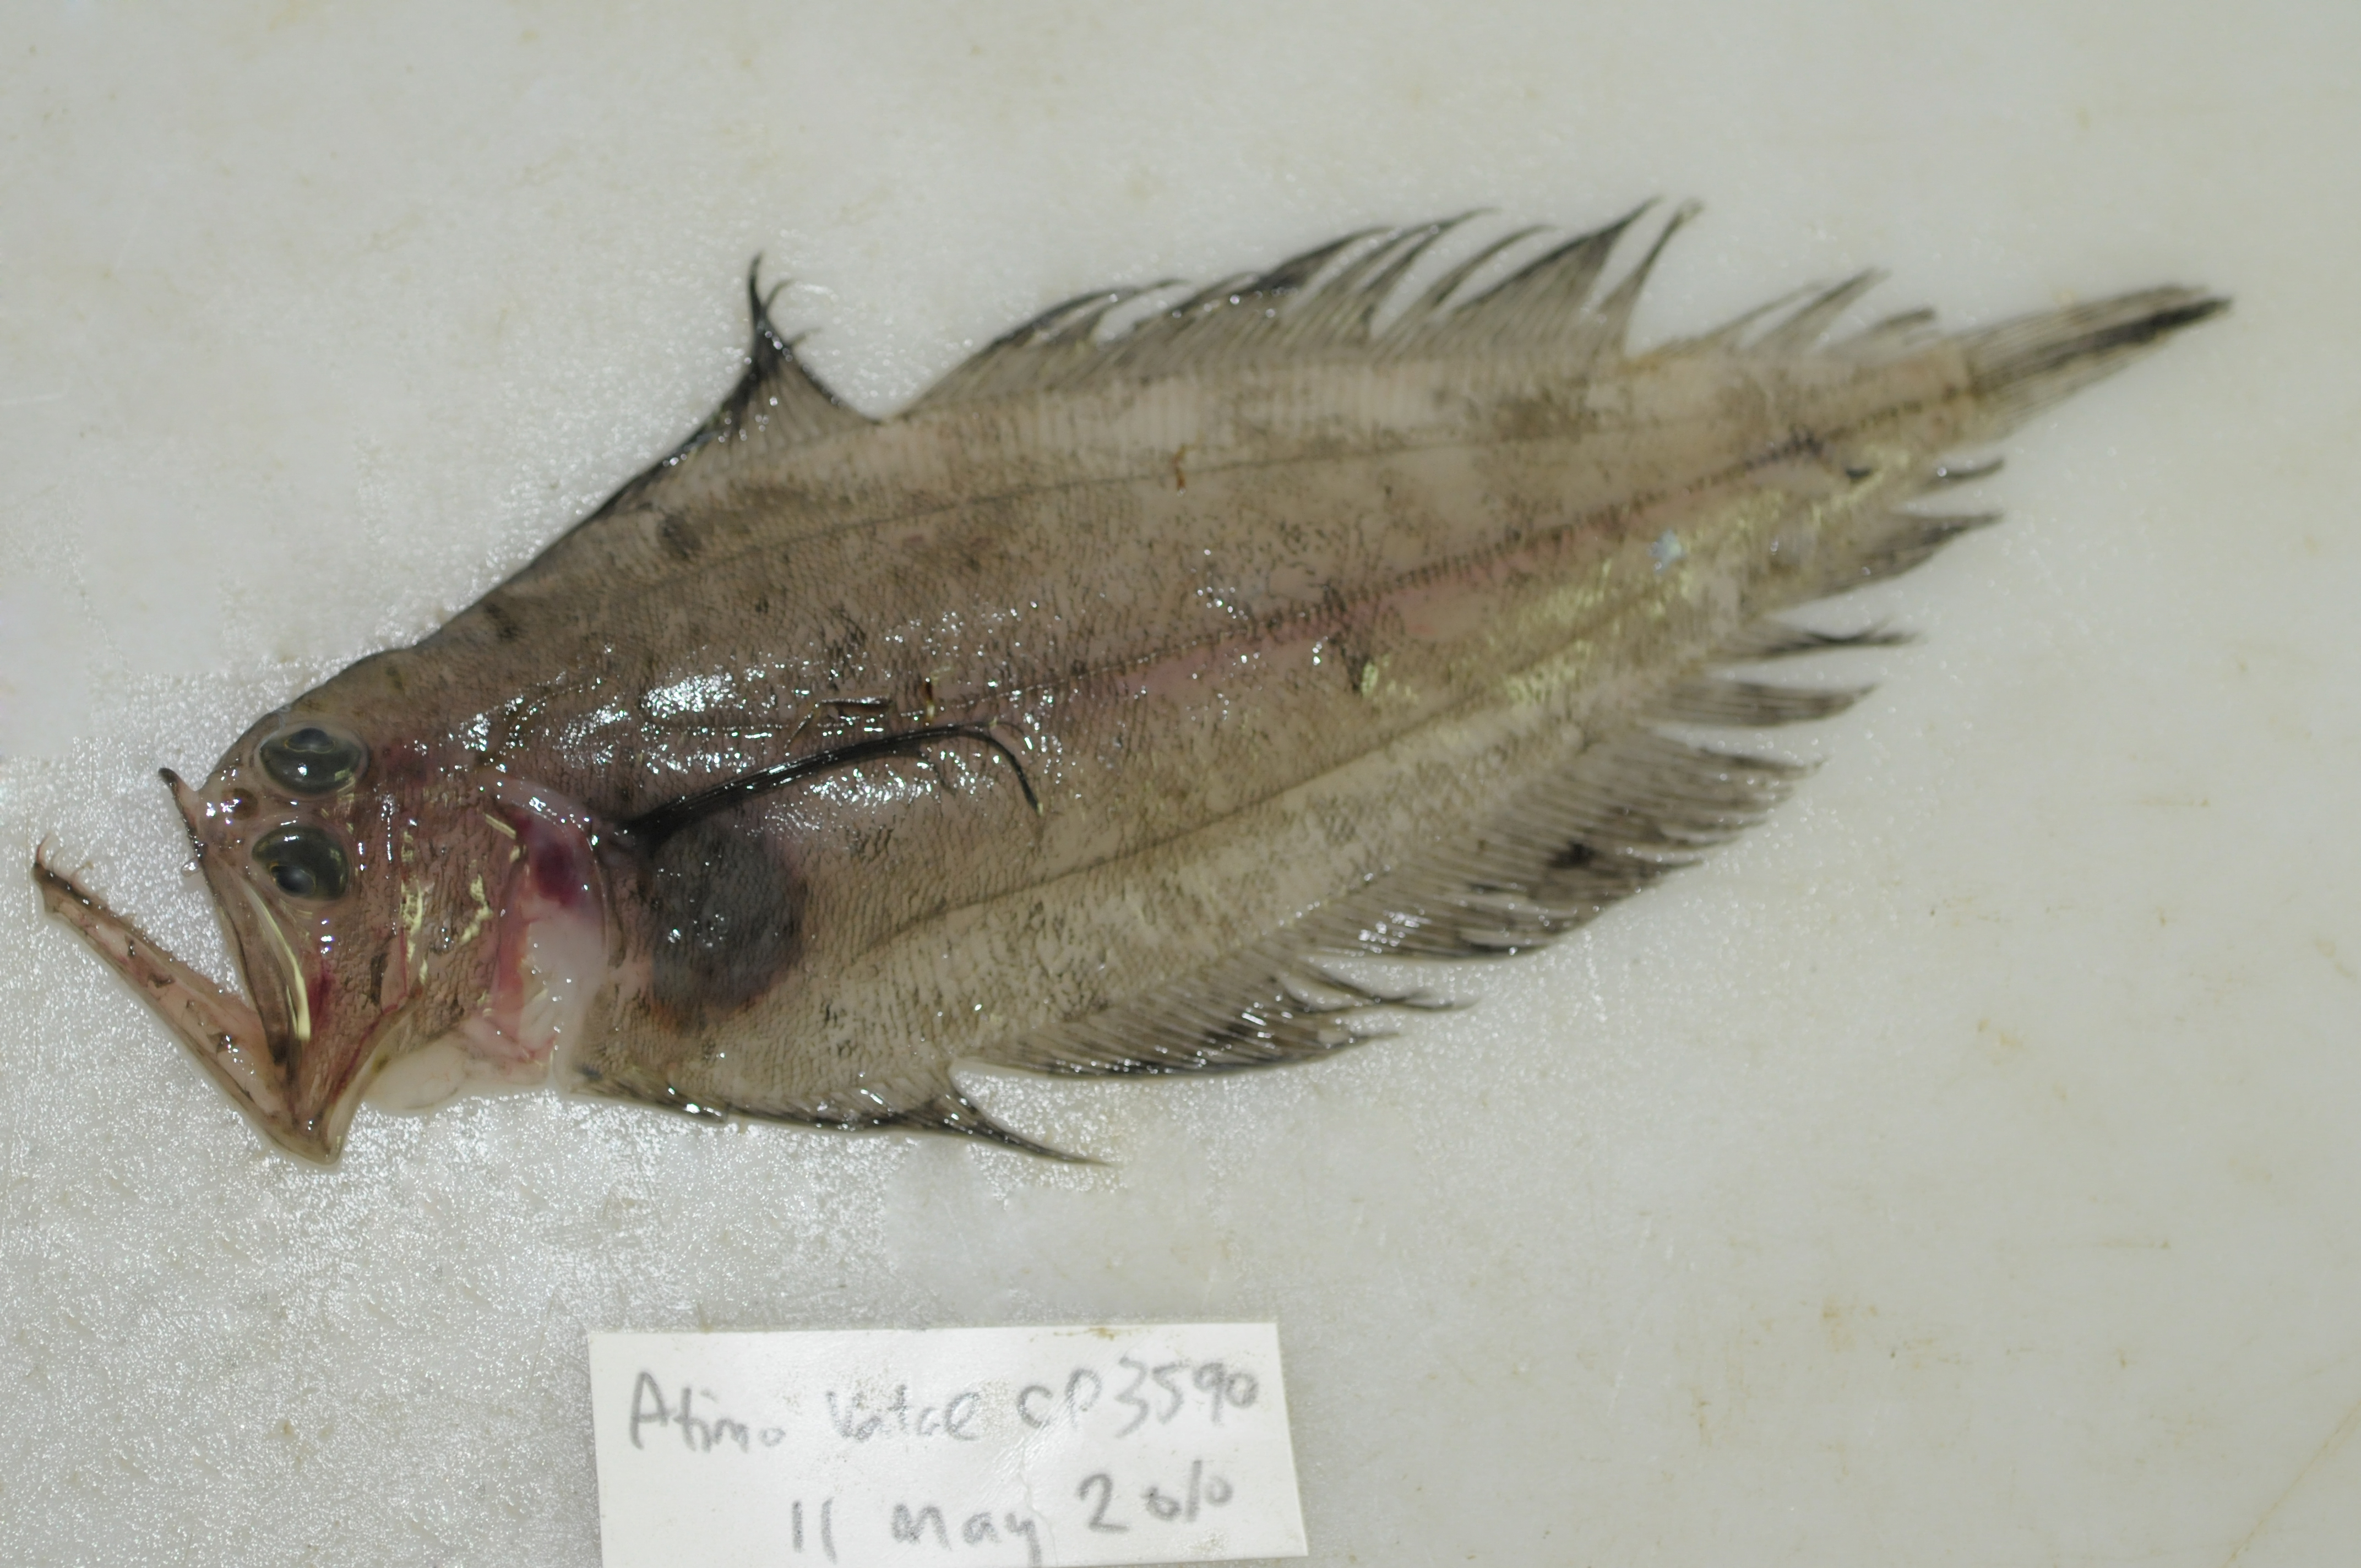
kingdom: Animalia
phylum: Chordata
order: Pleuronectiformes
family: Bothidae
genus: Kamoharaia
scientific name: Kamoharaia megastoma
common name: Wide-mouthed flounder
